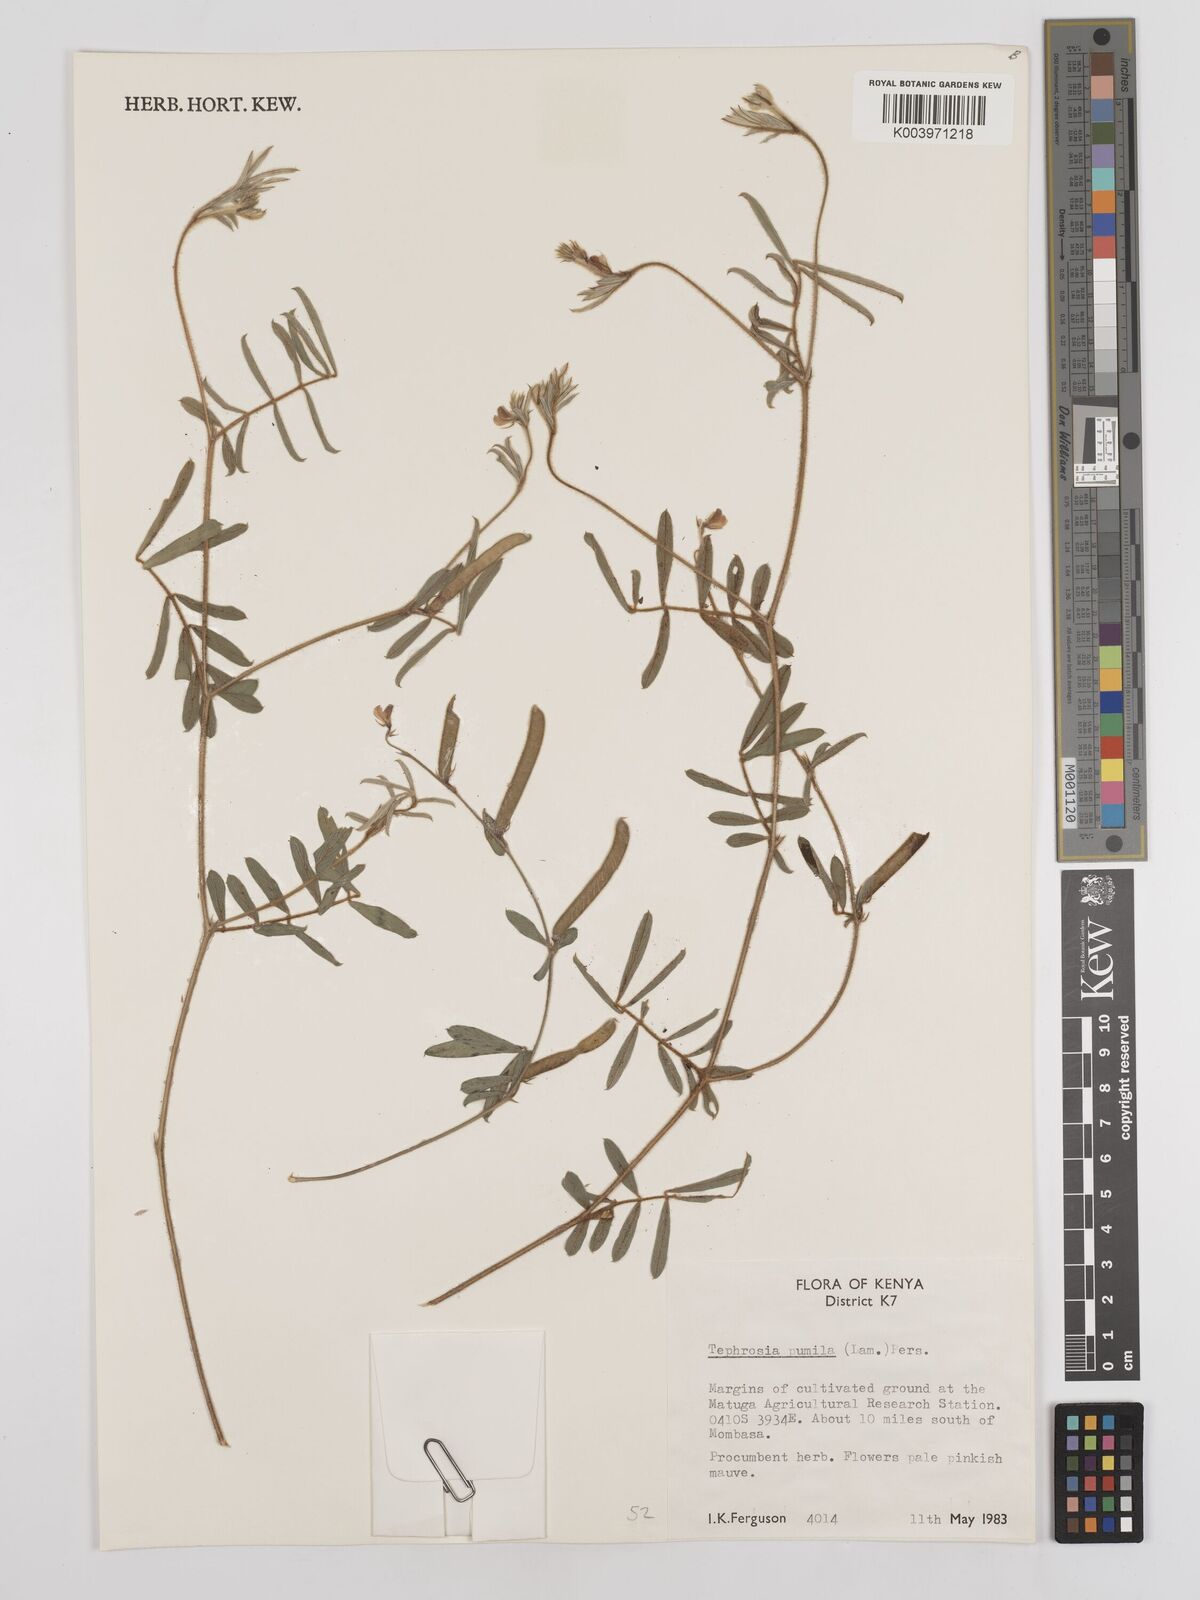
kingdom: Plantae
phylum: Tracheophyta
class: Magnoliopsida
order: Fabales
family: Fabaceae
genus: Tephrosia
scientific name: Tephrosia pumila
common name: Indigo sauvage
